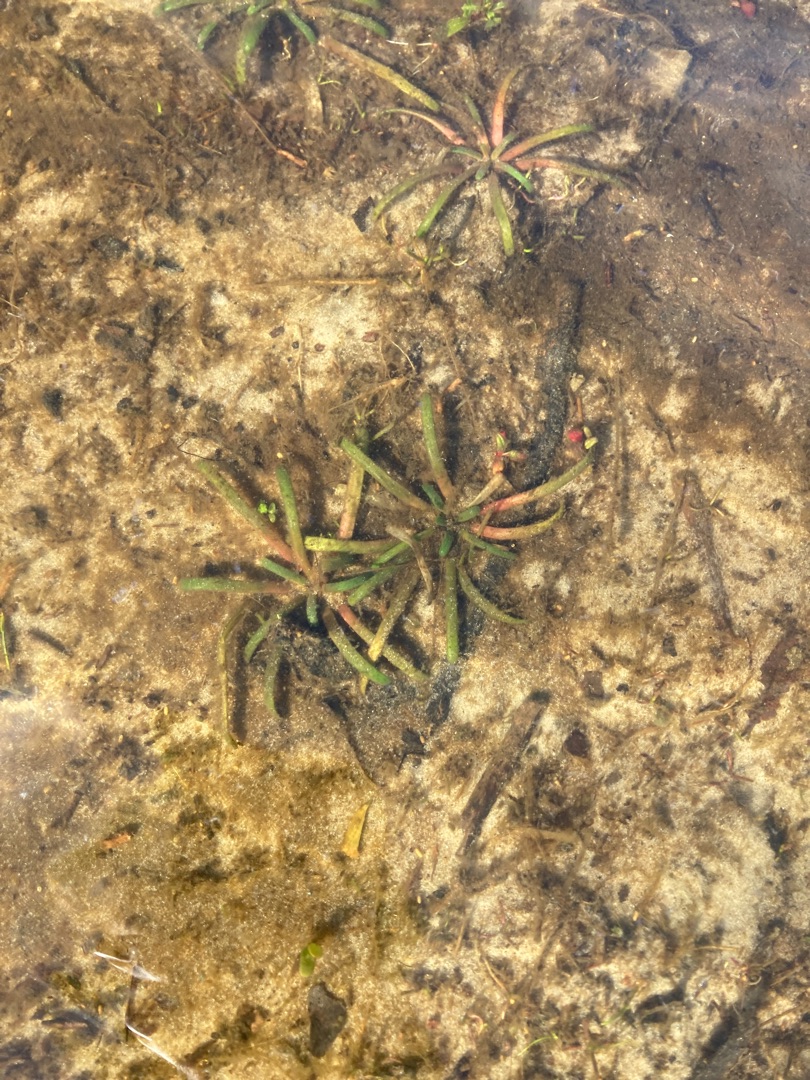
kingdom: Plantae
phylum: Tracheophyta
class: Magnoliopsida
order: Asterales
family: Campanulaceae
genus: Lobelia
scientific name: Lobelia dortmanna
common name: Tvepibet lobelie
